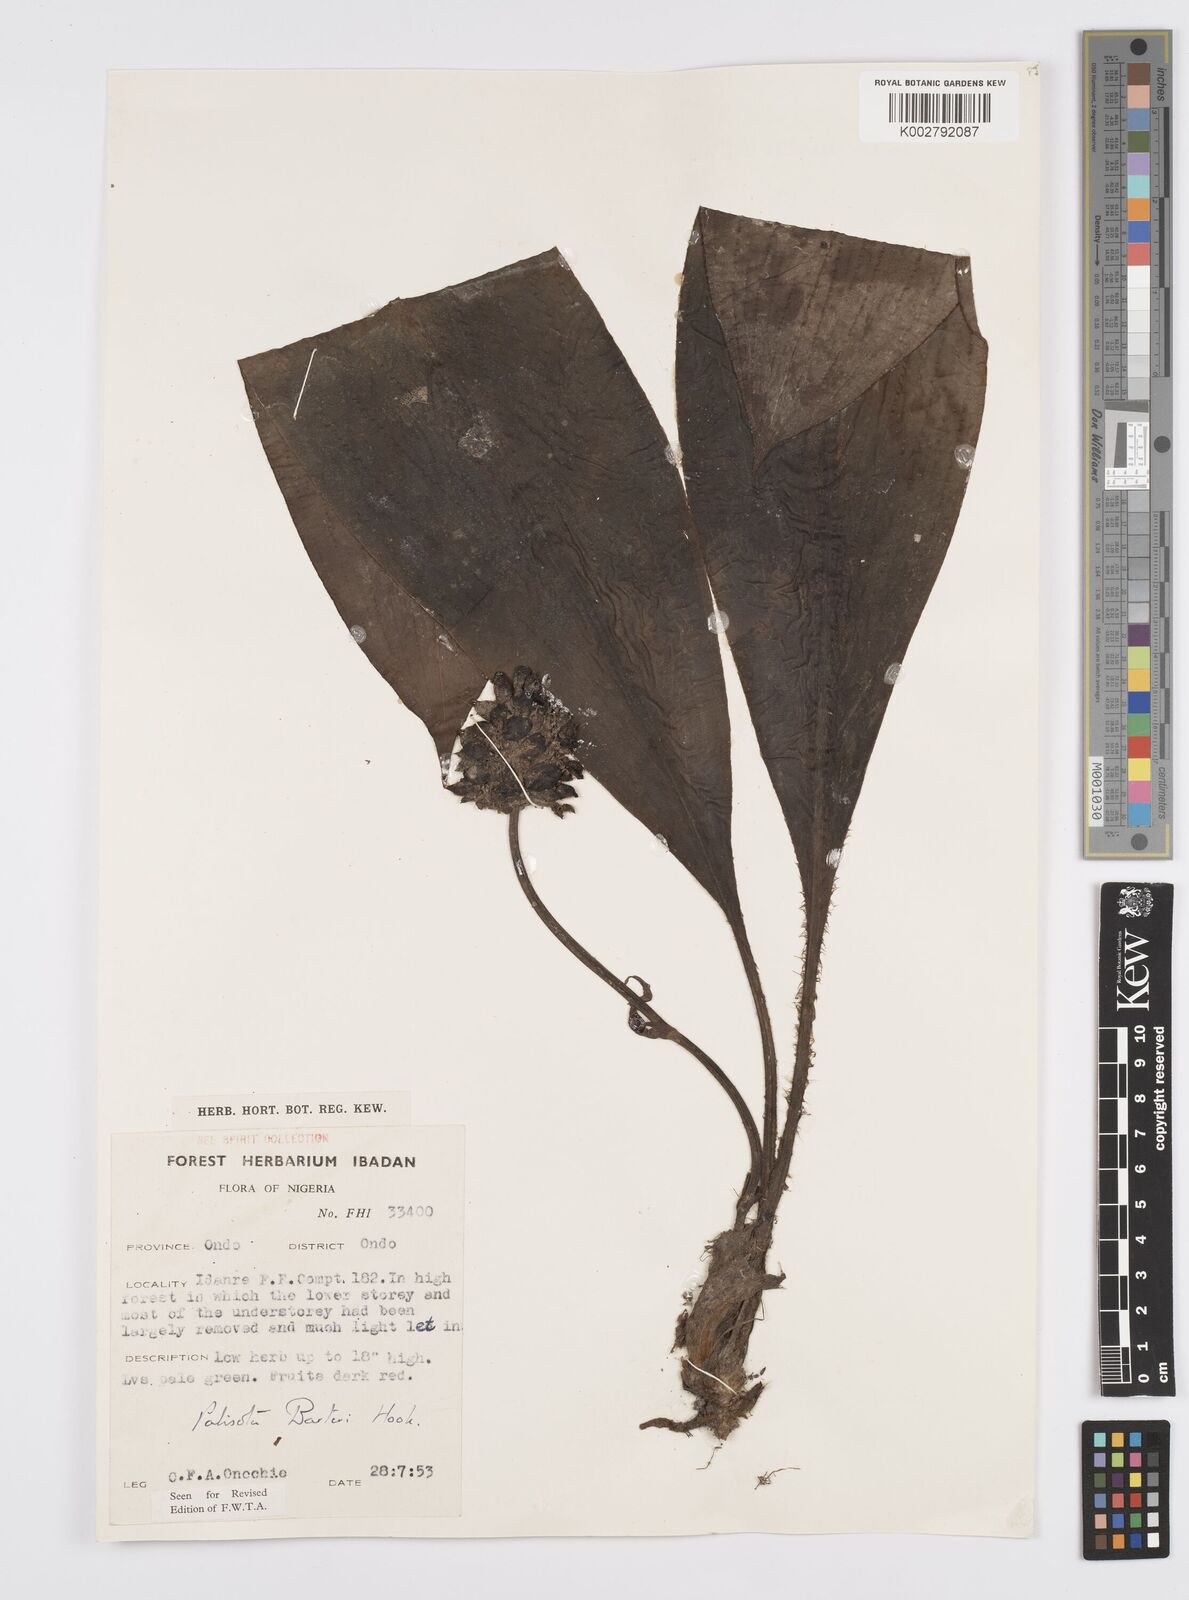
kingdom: Plantae
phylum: Tracheophyta
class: Liliopsida
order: Commelinales
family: Commelinaceae
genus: Palisota
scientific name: Palisota barteri
